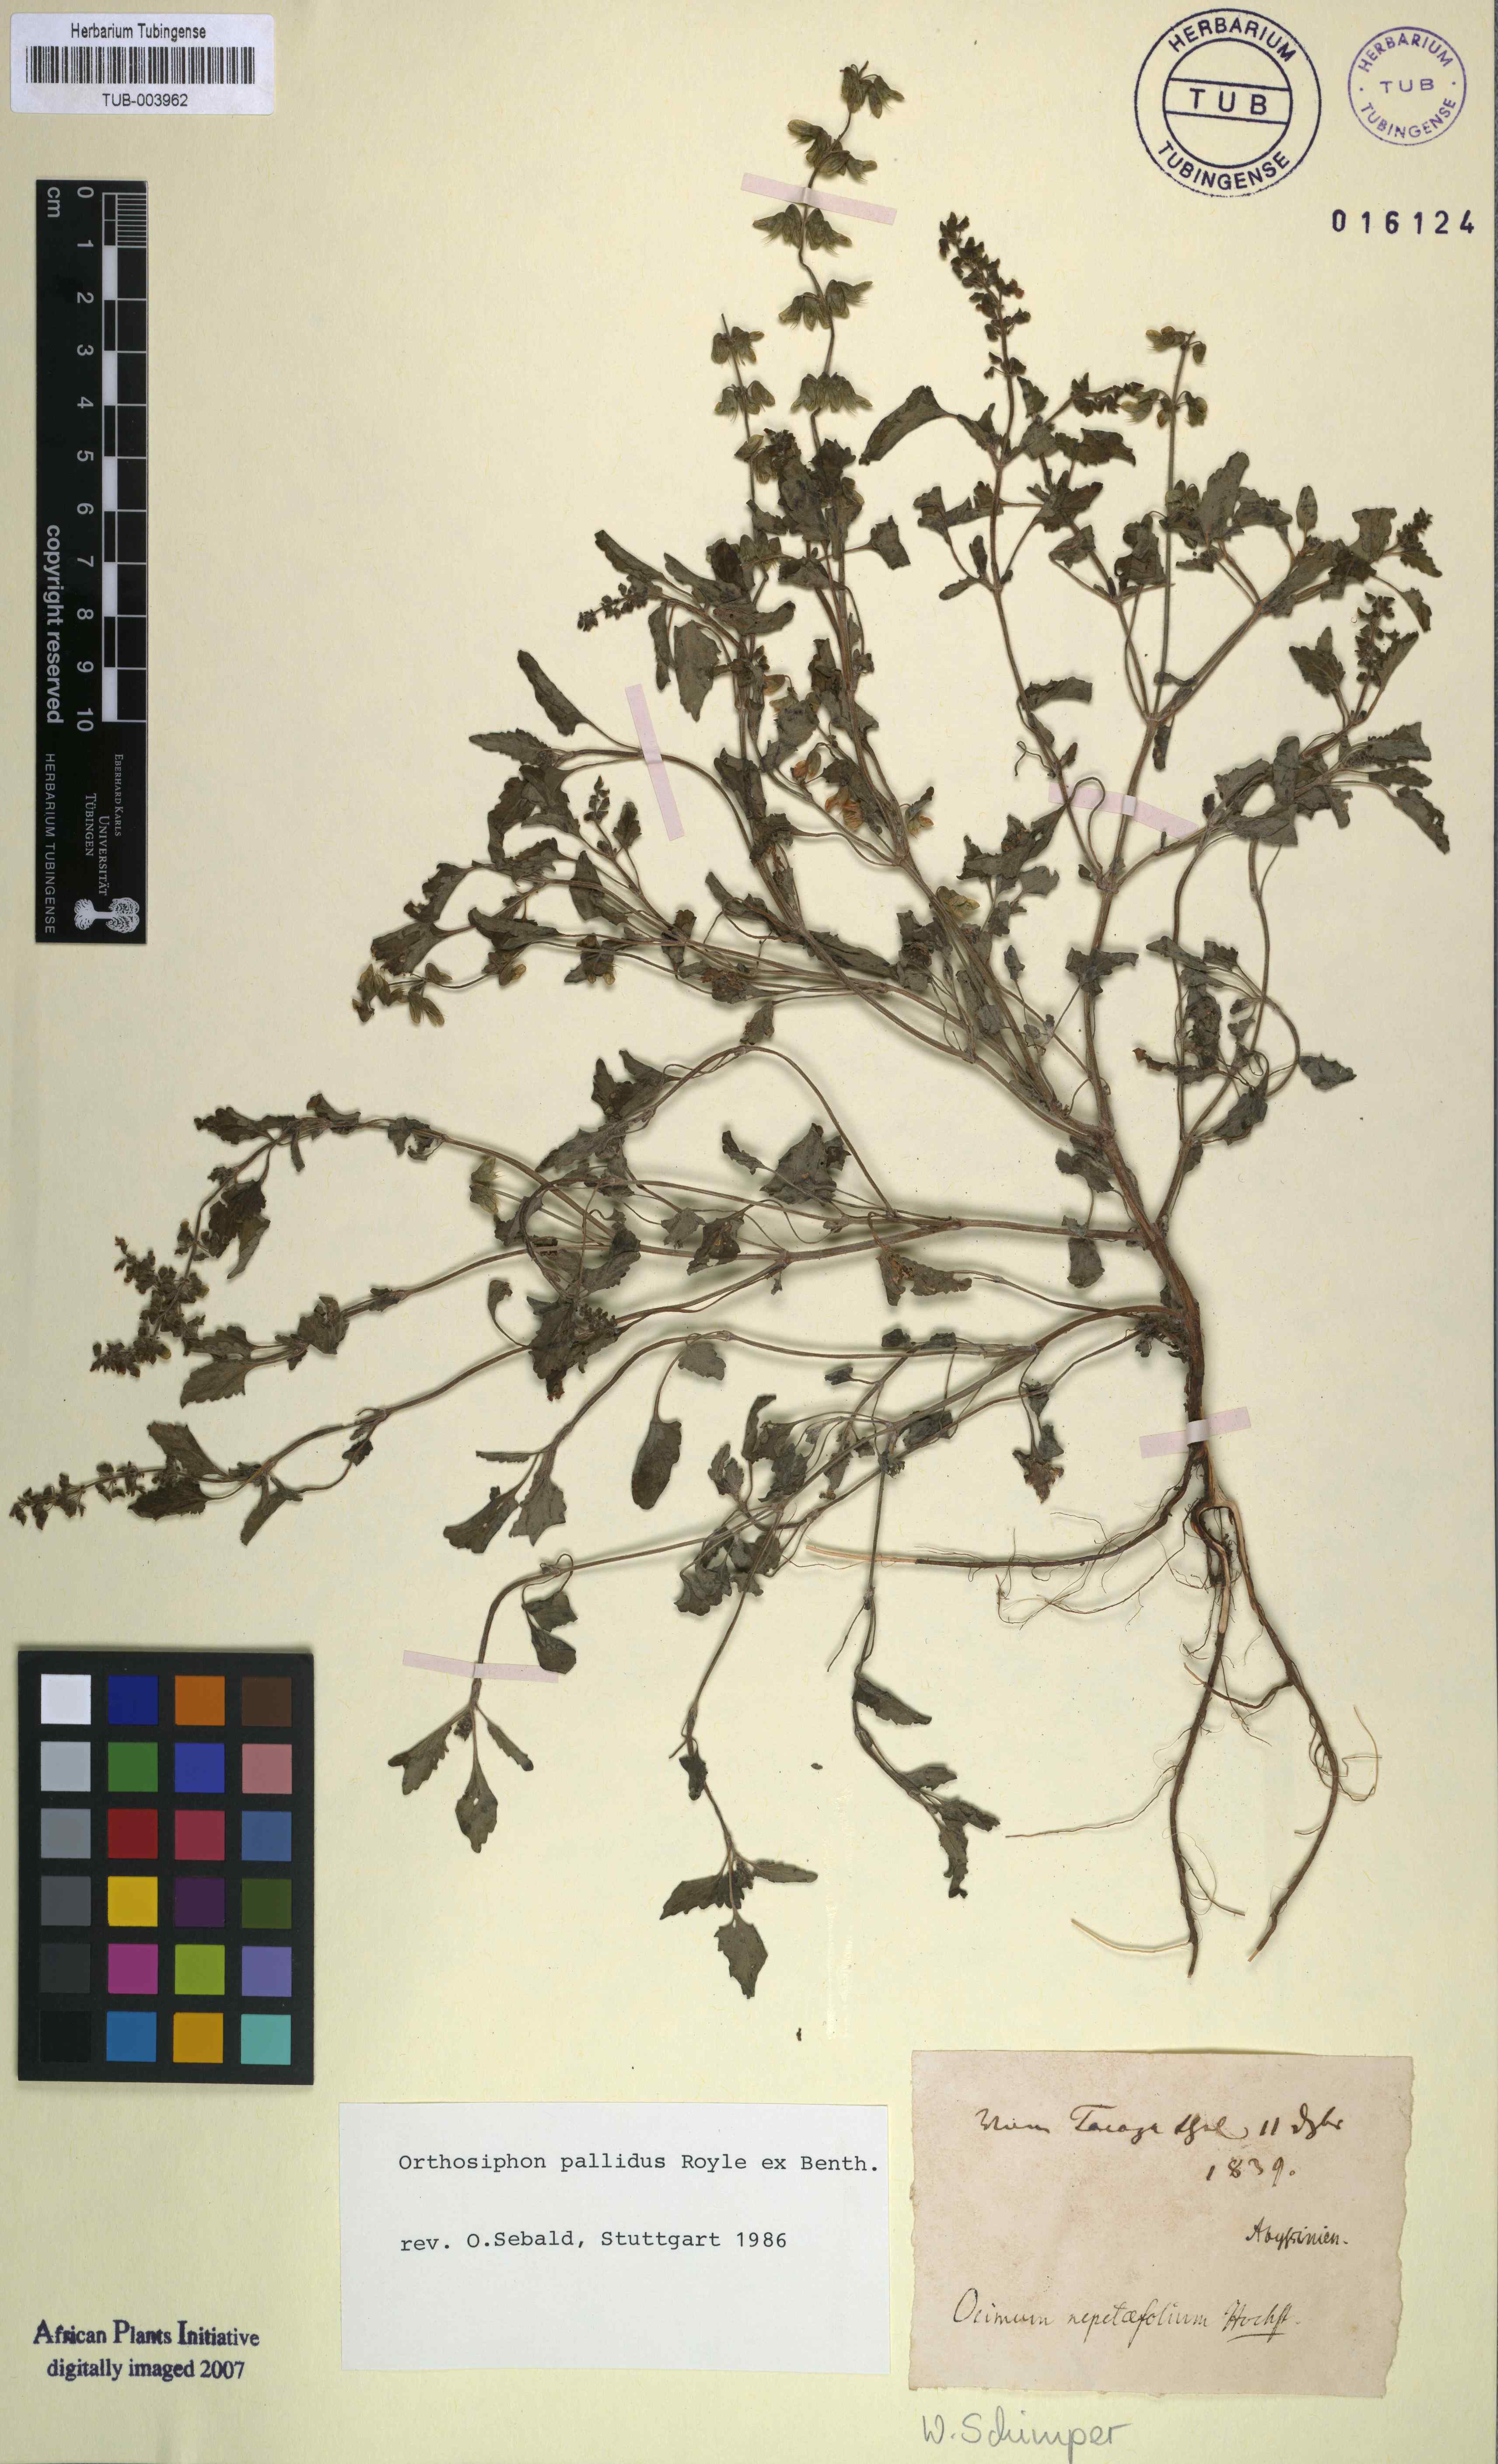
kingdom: Plantae
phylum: Tracheophyta
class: Magnoliopsida
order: Lamiales
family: Lamiaceae
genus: Orthosiphon
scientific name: Orthosiphon pallidus
